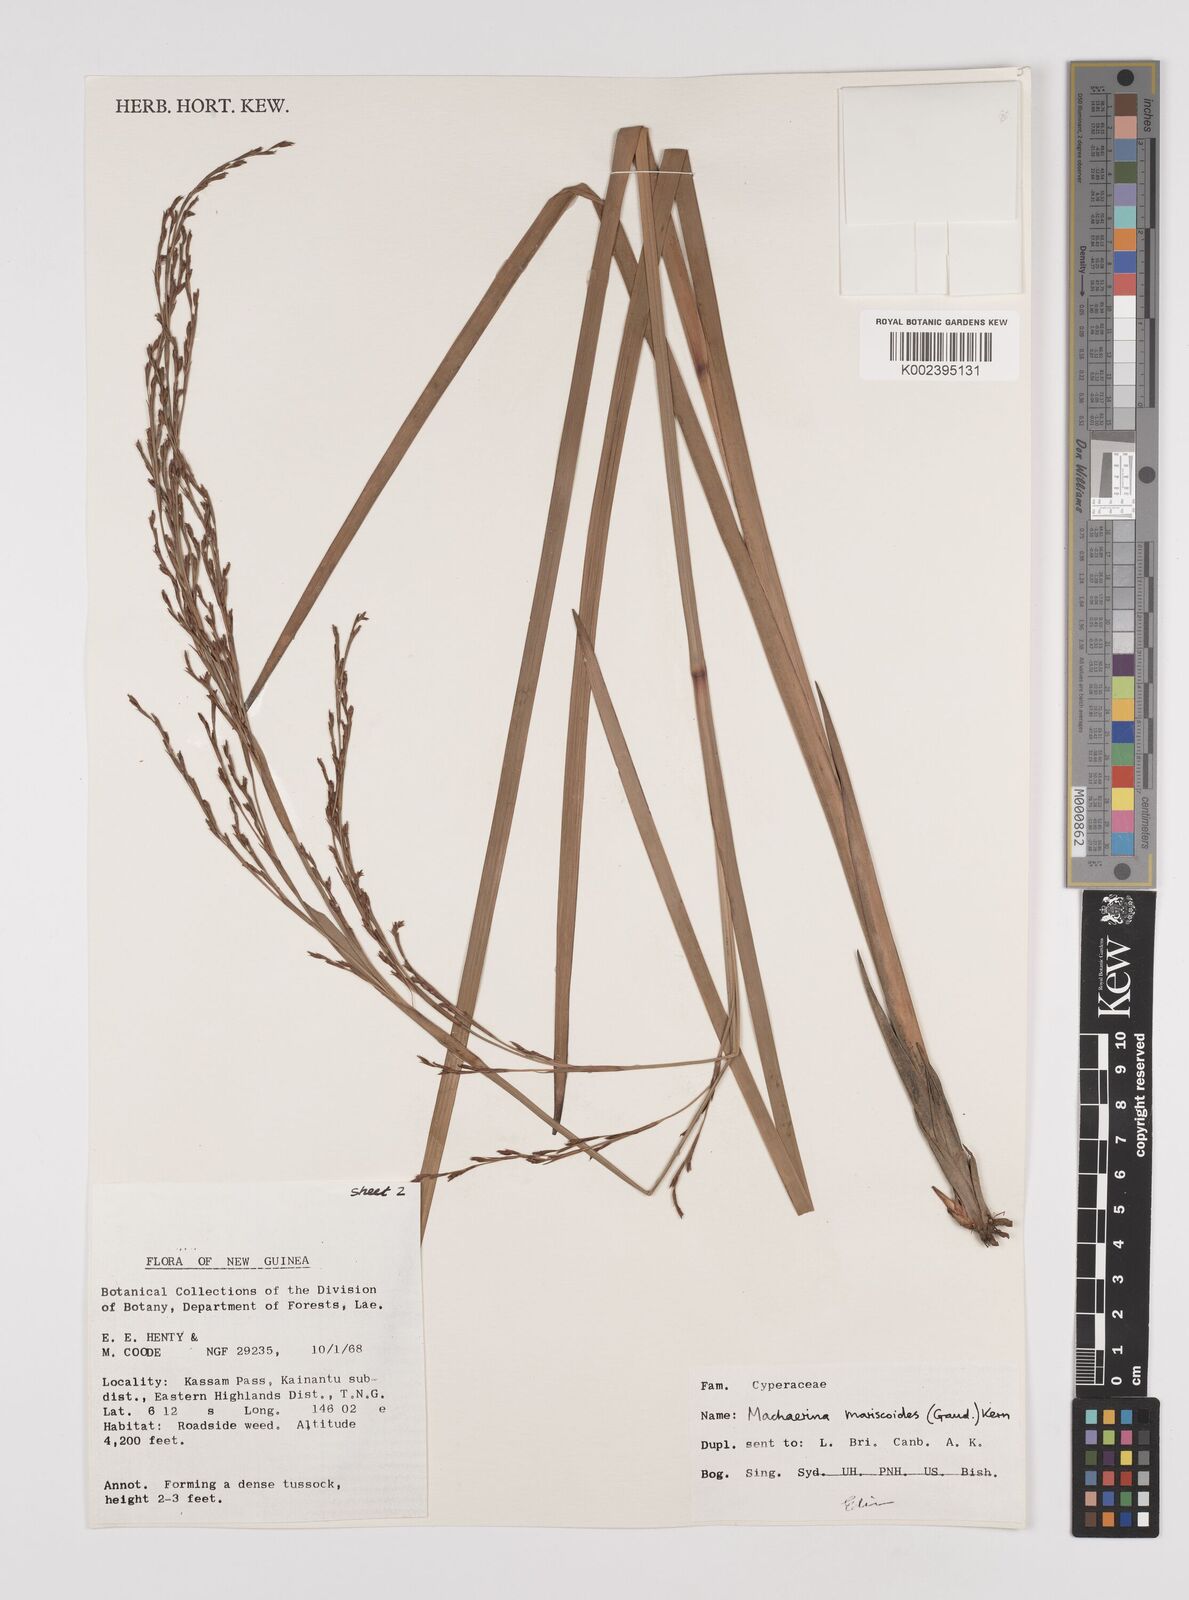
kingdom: Plantae
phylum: Tracheophyta
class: Liliopsida
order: Poales
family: Cyperaceae
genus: Machaerina
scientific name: Machaerina mariscoides
